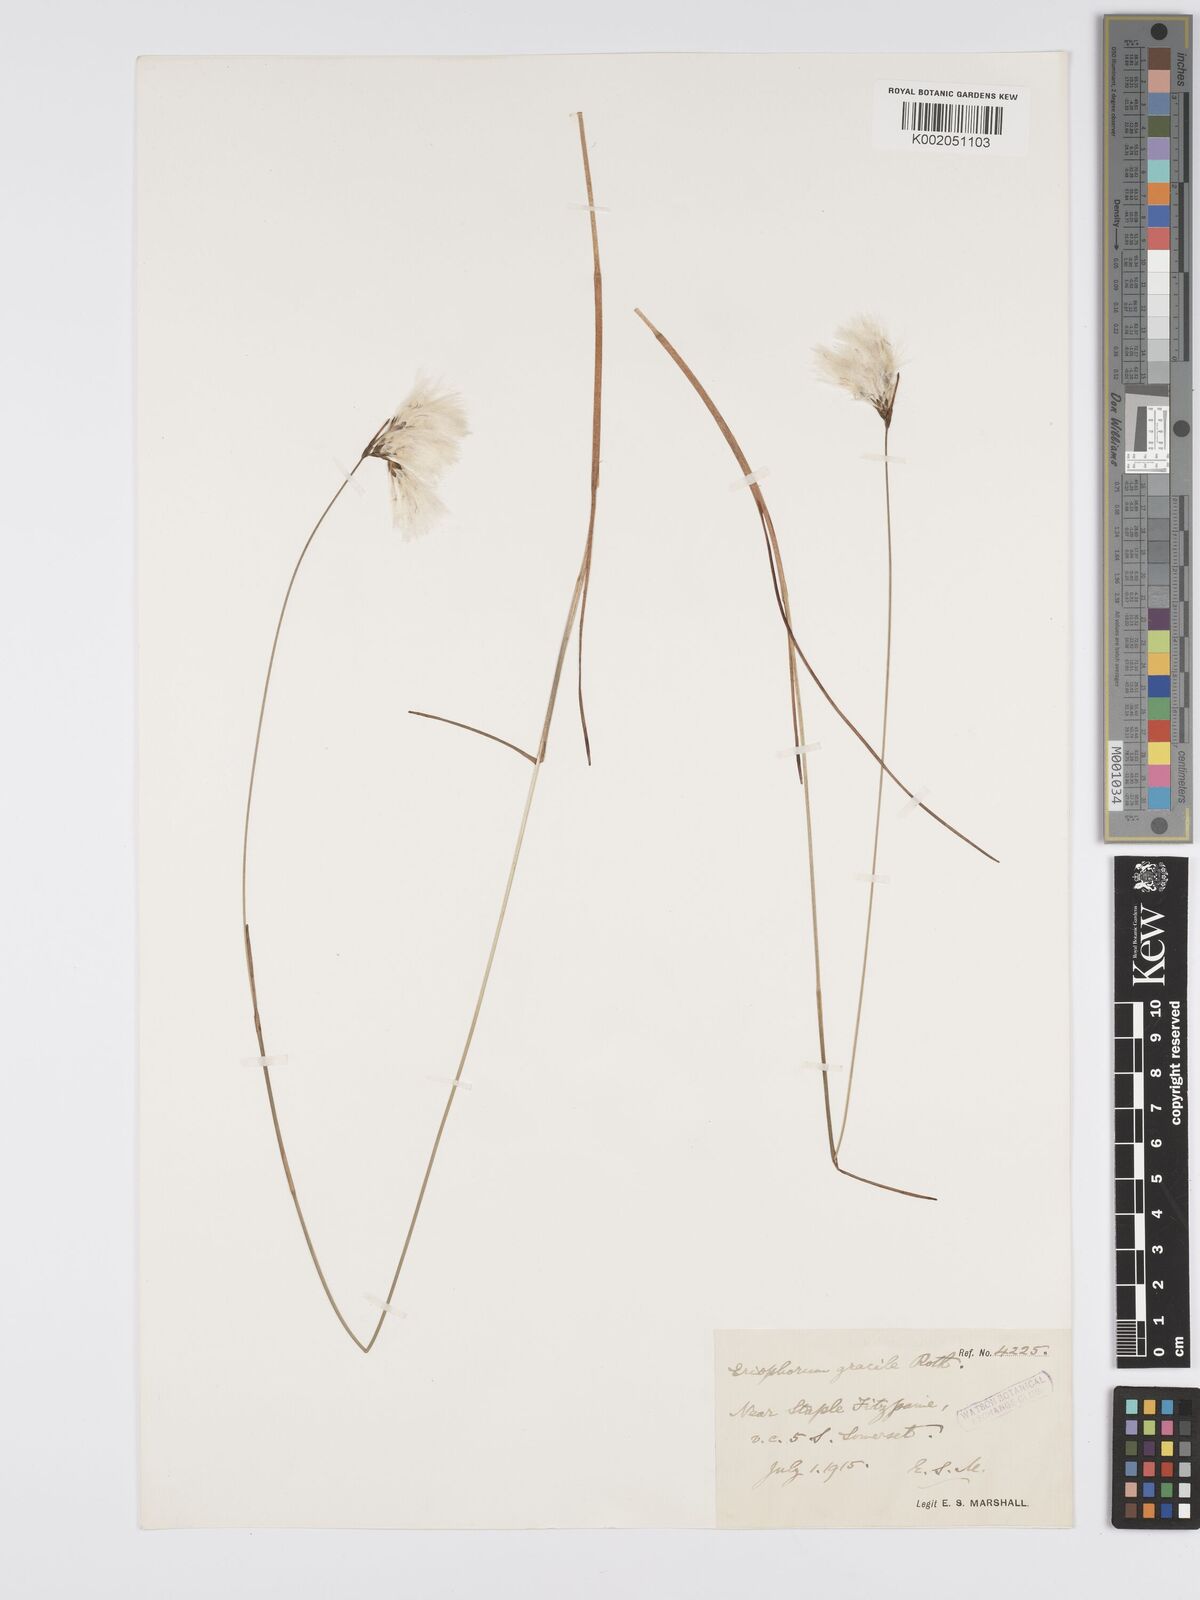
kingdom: Plantae
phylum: Tracheophyta
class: Liliopsida
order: Poales
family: Cyperaceae
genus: Eriophorum
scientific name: Eriophorum gracile
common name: Slender cottongrass
